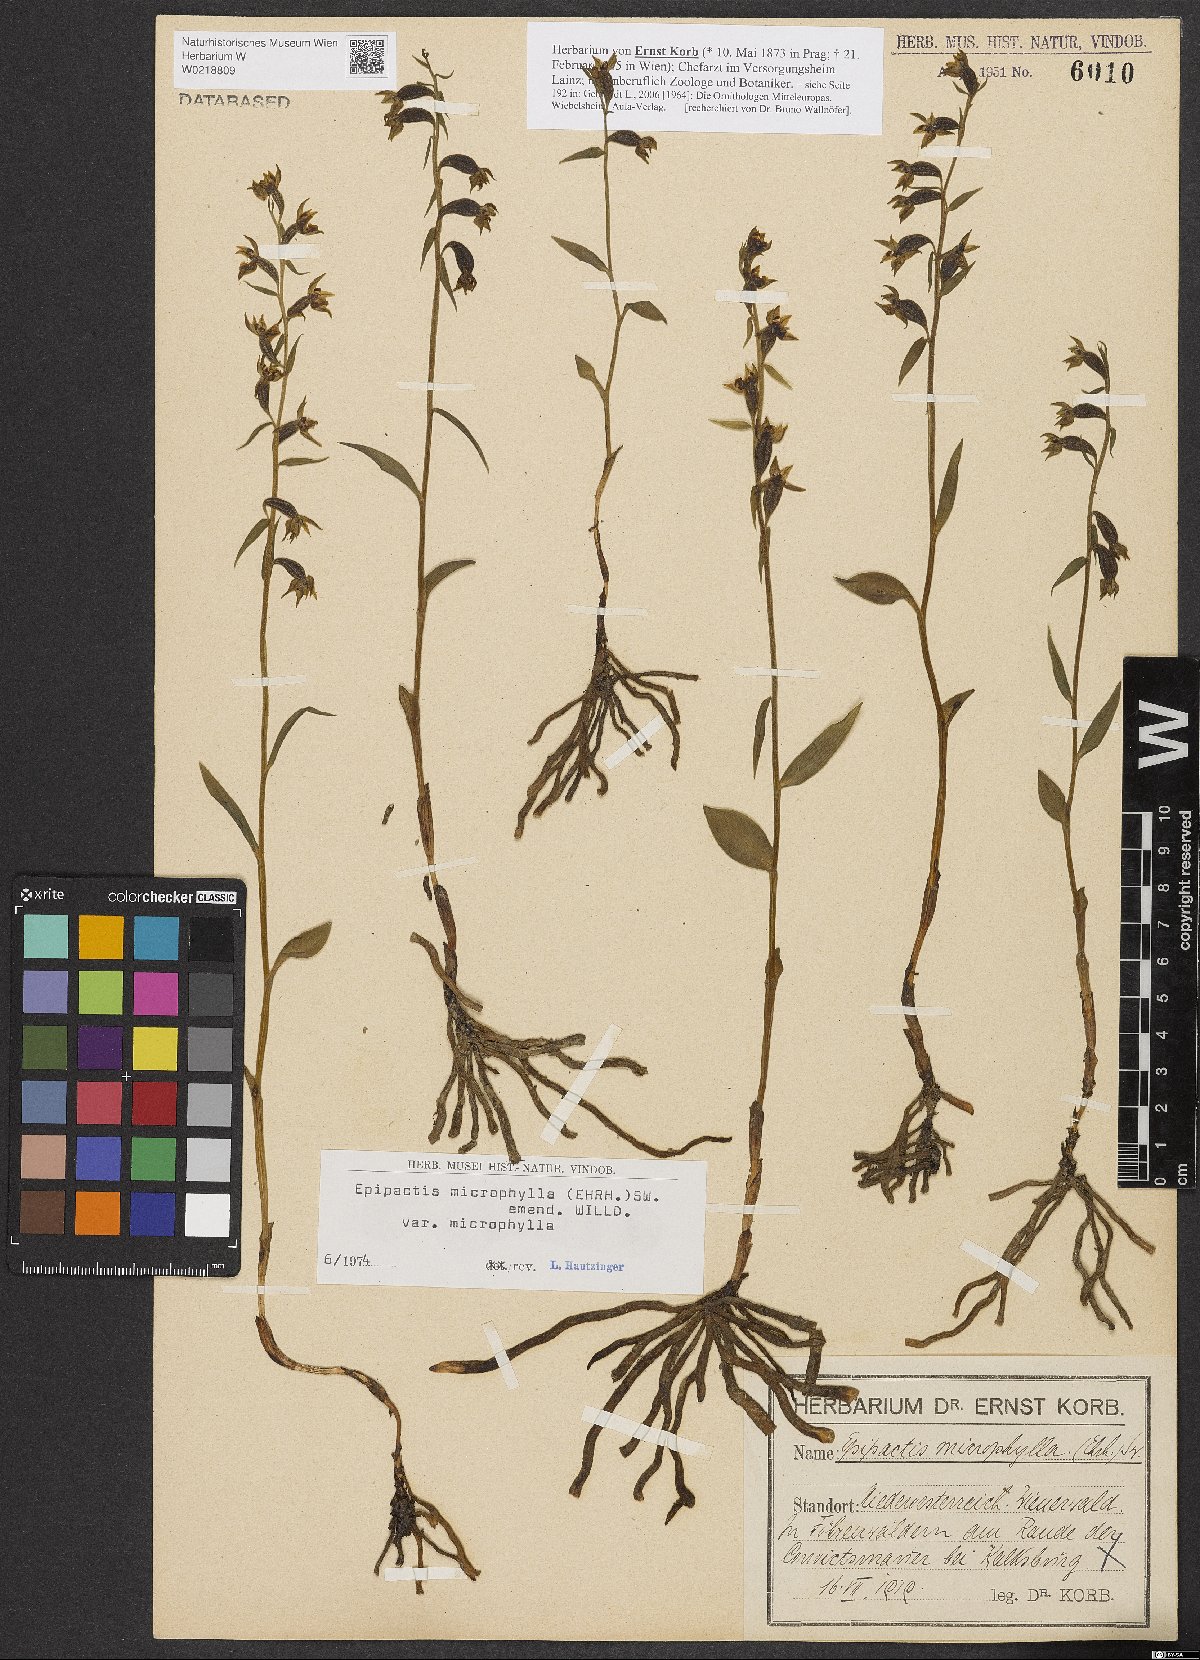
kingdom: Plantae
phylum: Tracheophyta
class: Liliopsida
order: Asparagales
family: Orchidaceae
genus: Epipactis
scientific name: Epipactis microphylla
